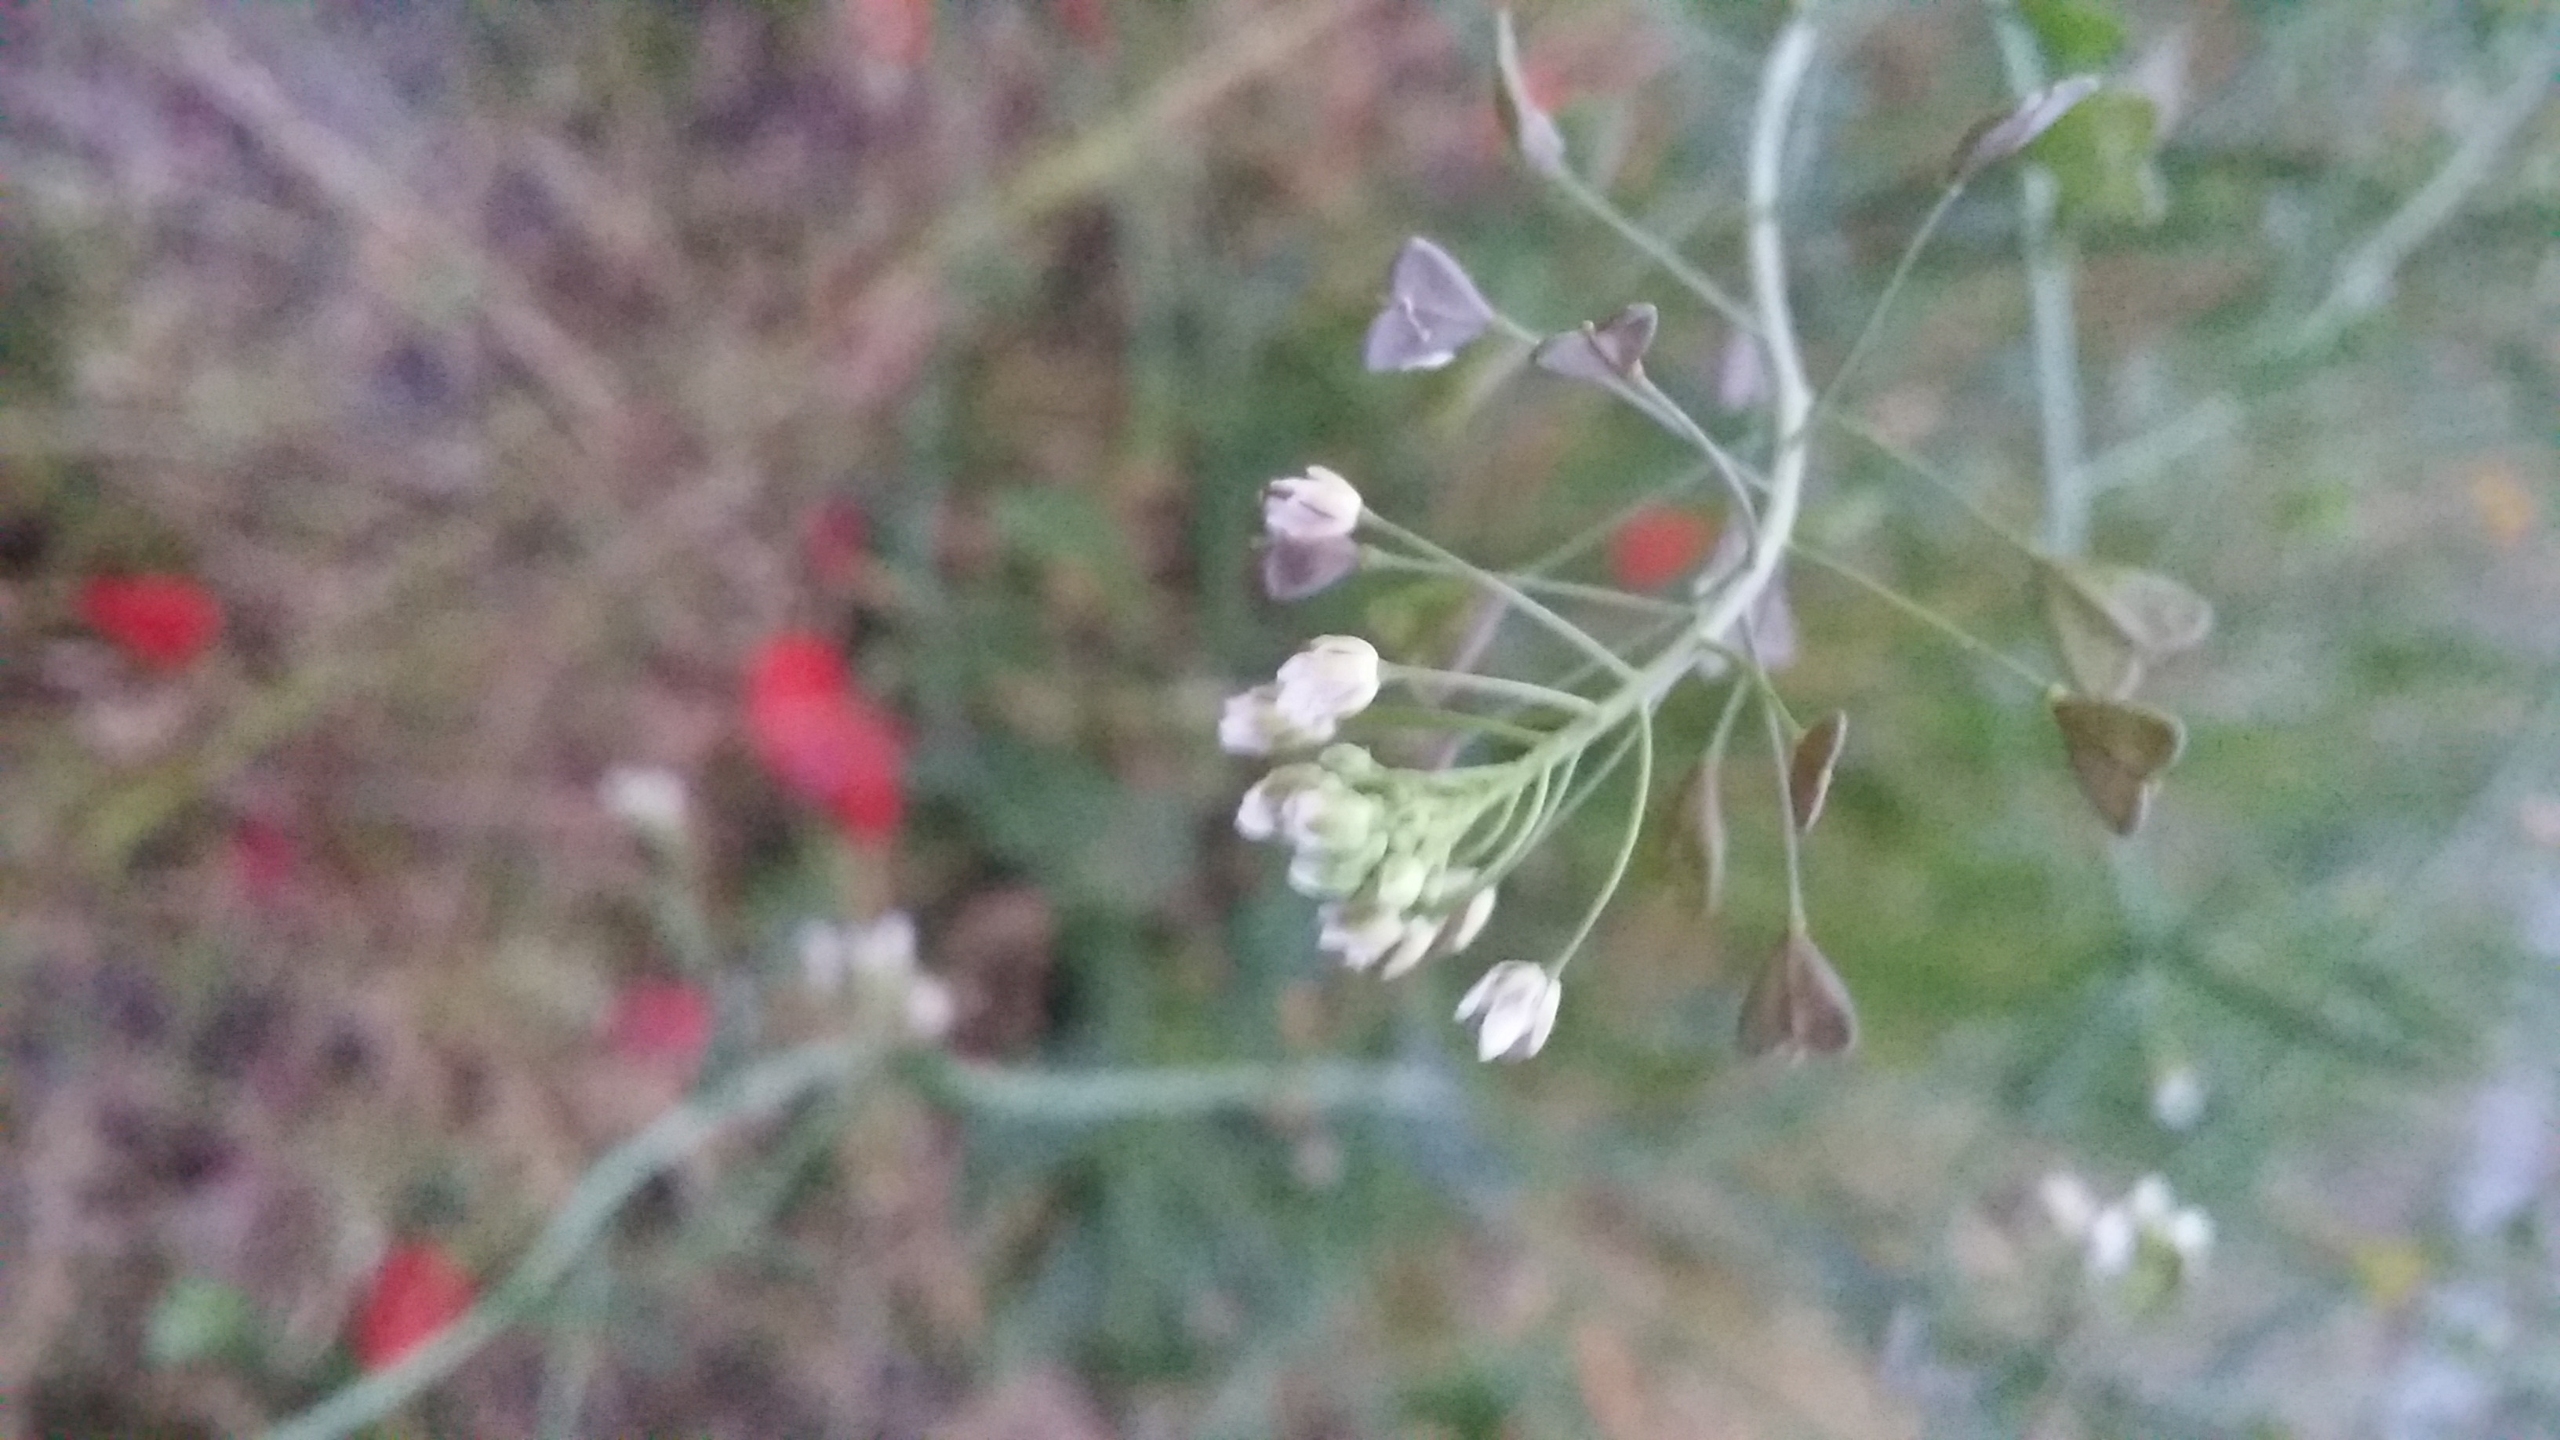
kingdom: Plantae
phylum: Tracheophyta
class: Magnoliopsida
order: Brassicales
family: Brassicaceae
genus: Capsella
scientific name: Capsella bursa-pastoris
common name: Hyrdetaske
